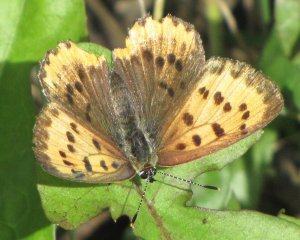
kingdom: Animalia
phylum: Arthropoda
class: Insecta
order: Lepidoptera
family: Sesiidae
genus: Sesia
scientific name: Sesia Lycaena hyllus
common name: Bronze Copper
